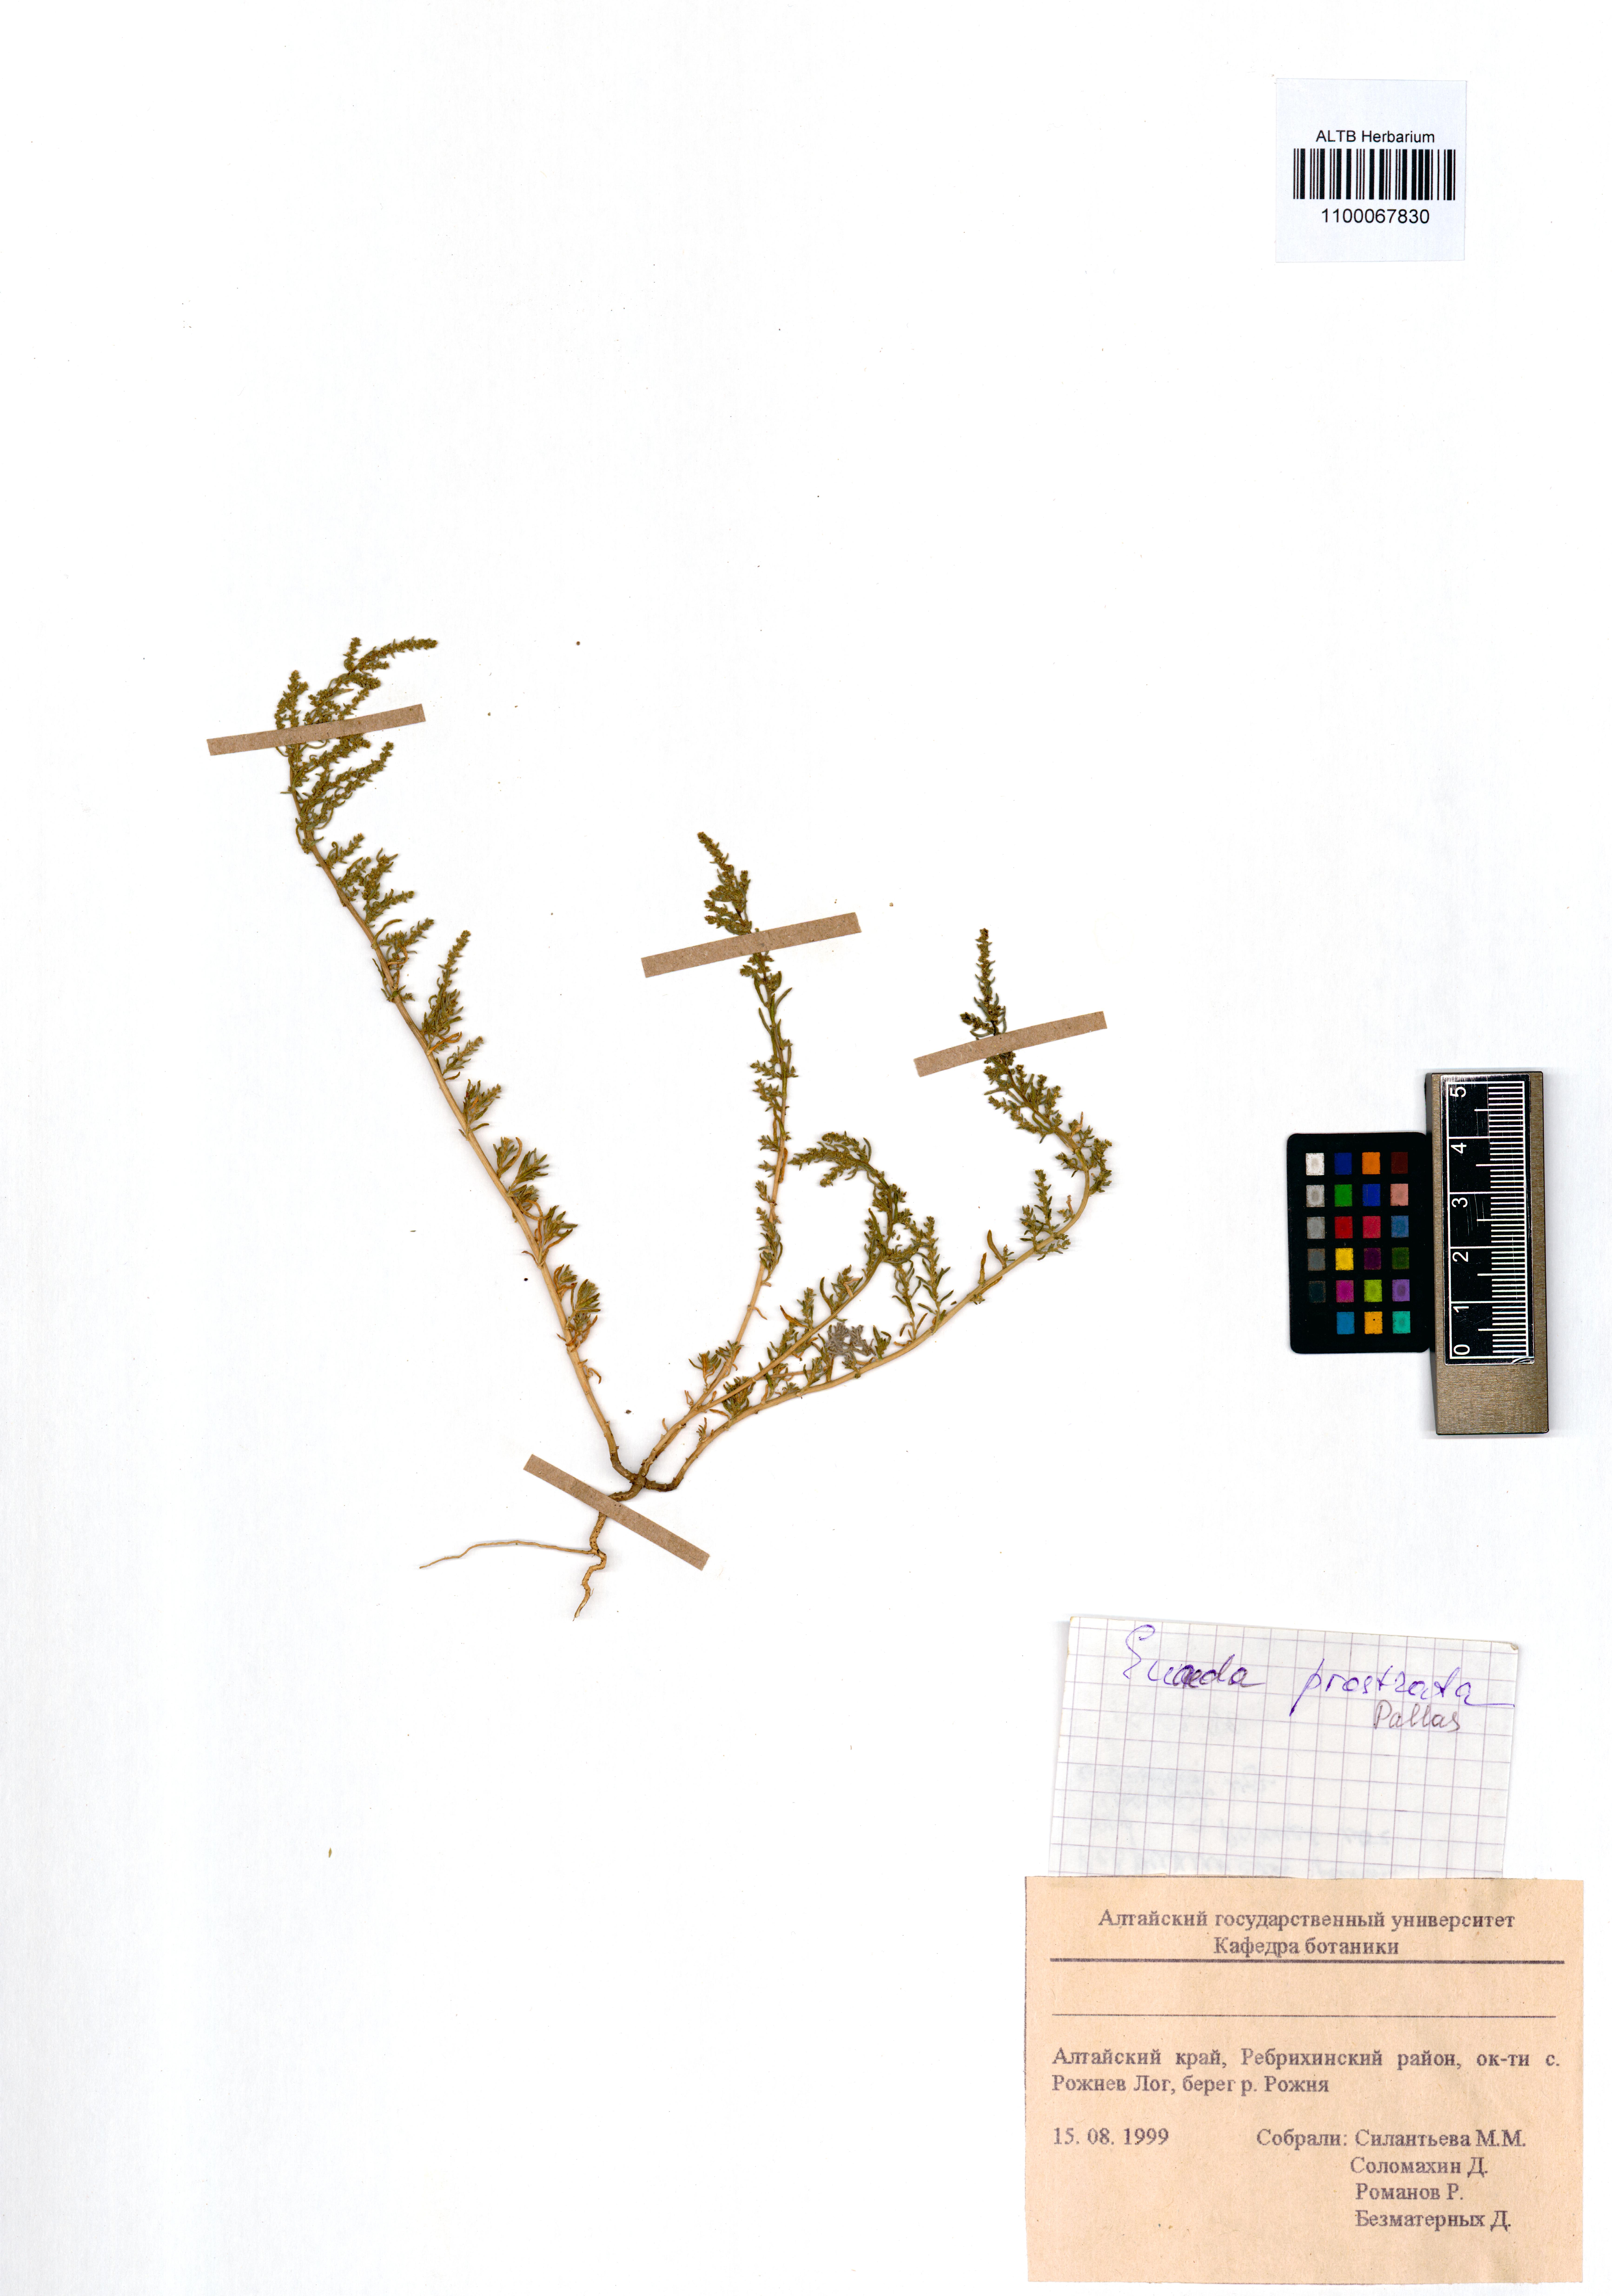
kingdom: Plantae
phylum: Tracheophyta
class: Magnoliopsida
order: Caryophyllales
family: Amaranthaceae
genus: Suaeda
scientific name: Suaeda prostrata
